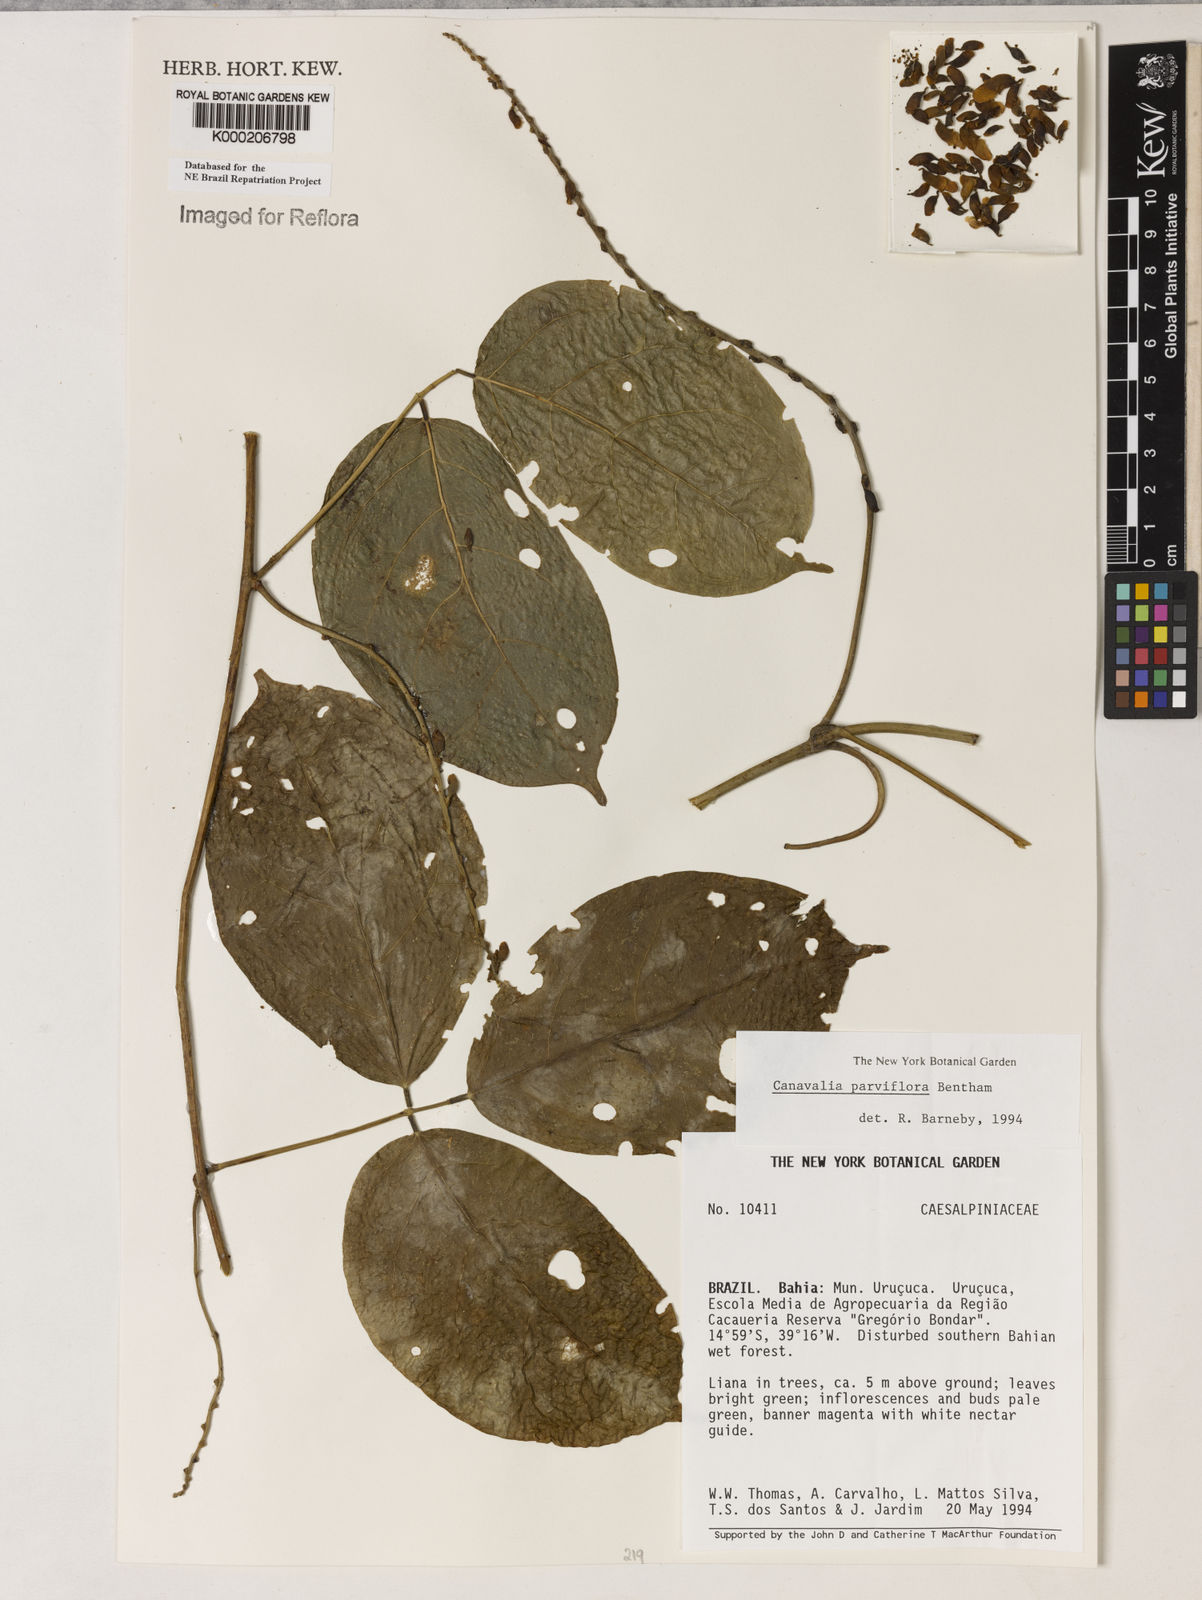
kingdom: Plantae
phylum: Tracheophyta
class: Magnoliopsida
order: Fabales
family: Fabaceae
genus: Canavalia
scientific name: Canavalia parviflora
